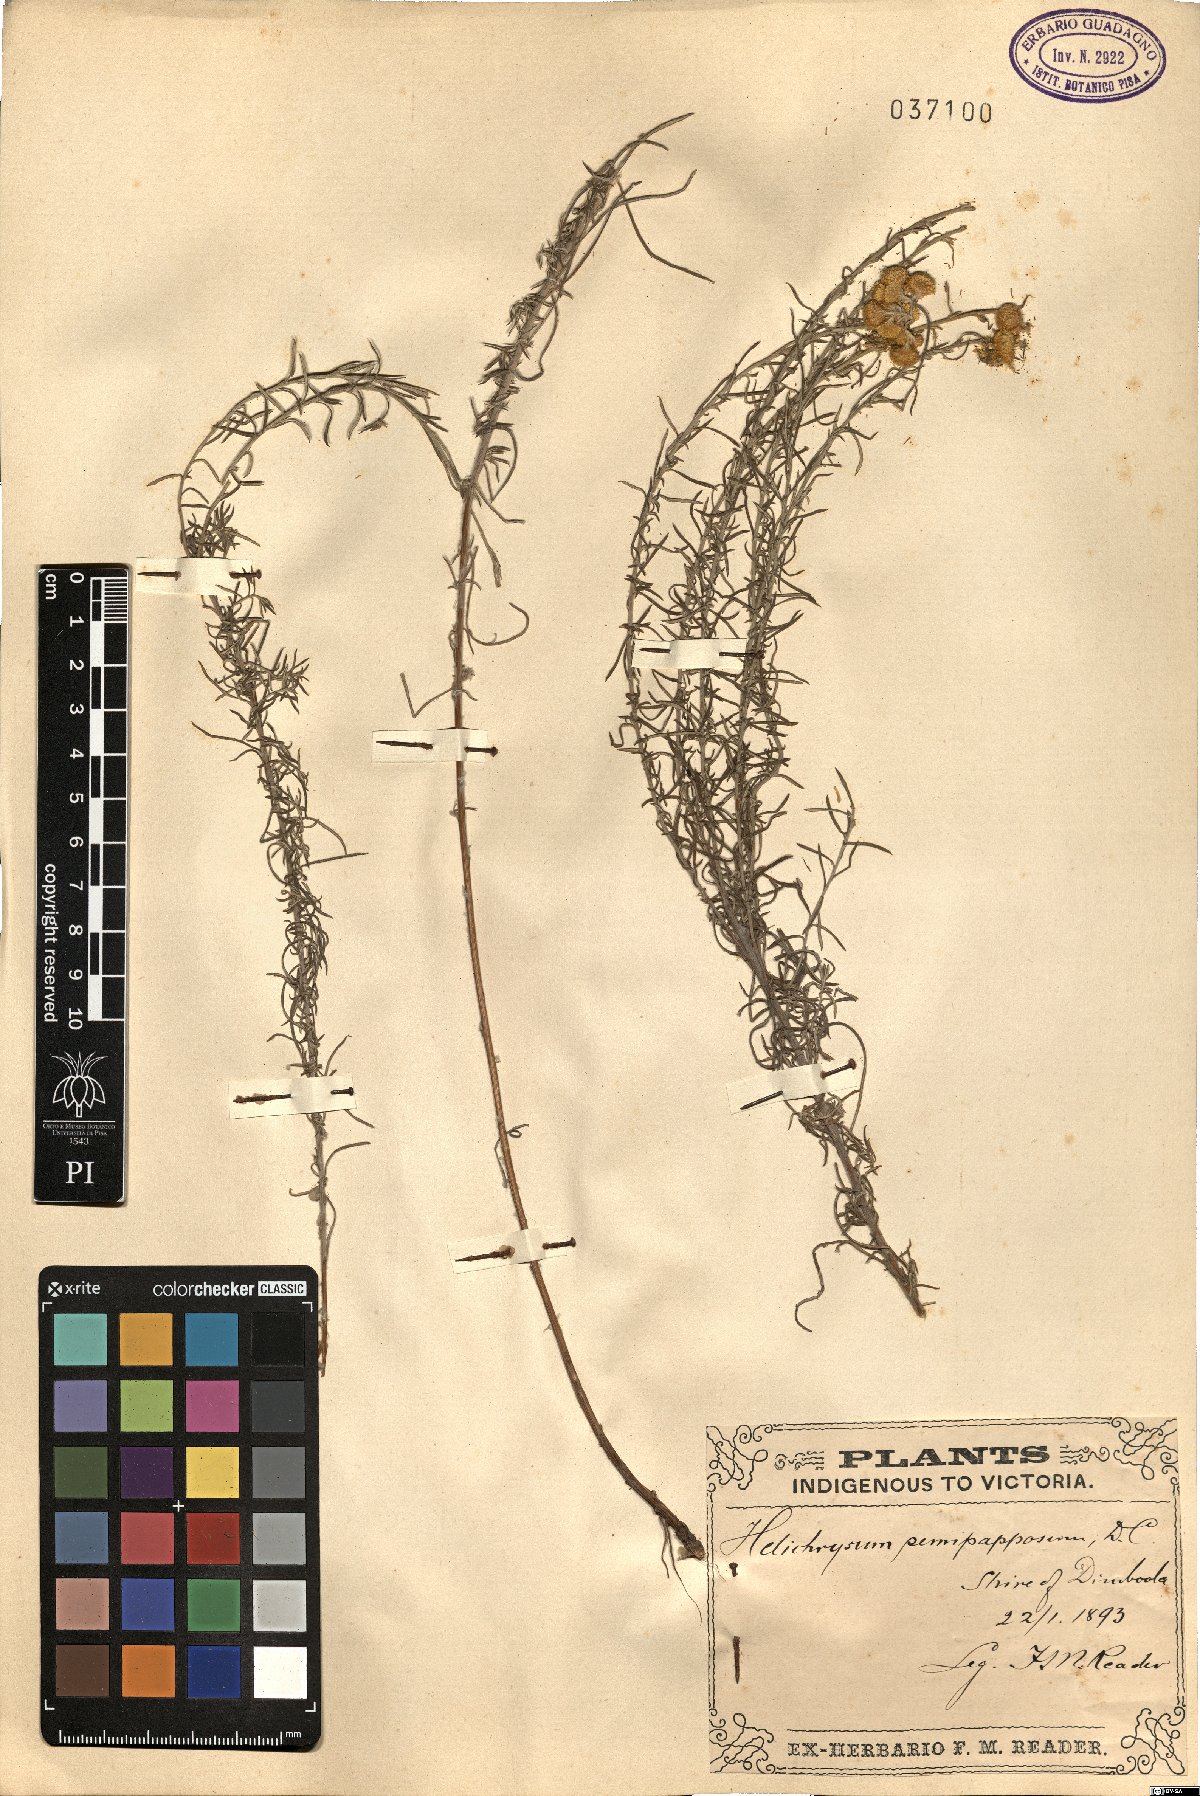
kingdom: Plantae
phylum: Tracheophyta
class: Magnoliopsida
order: Asterales
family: Asteraceae
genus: Chrysocephalum
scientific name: Chrysocephalum semipapposum
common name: Clustered everlasting
